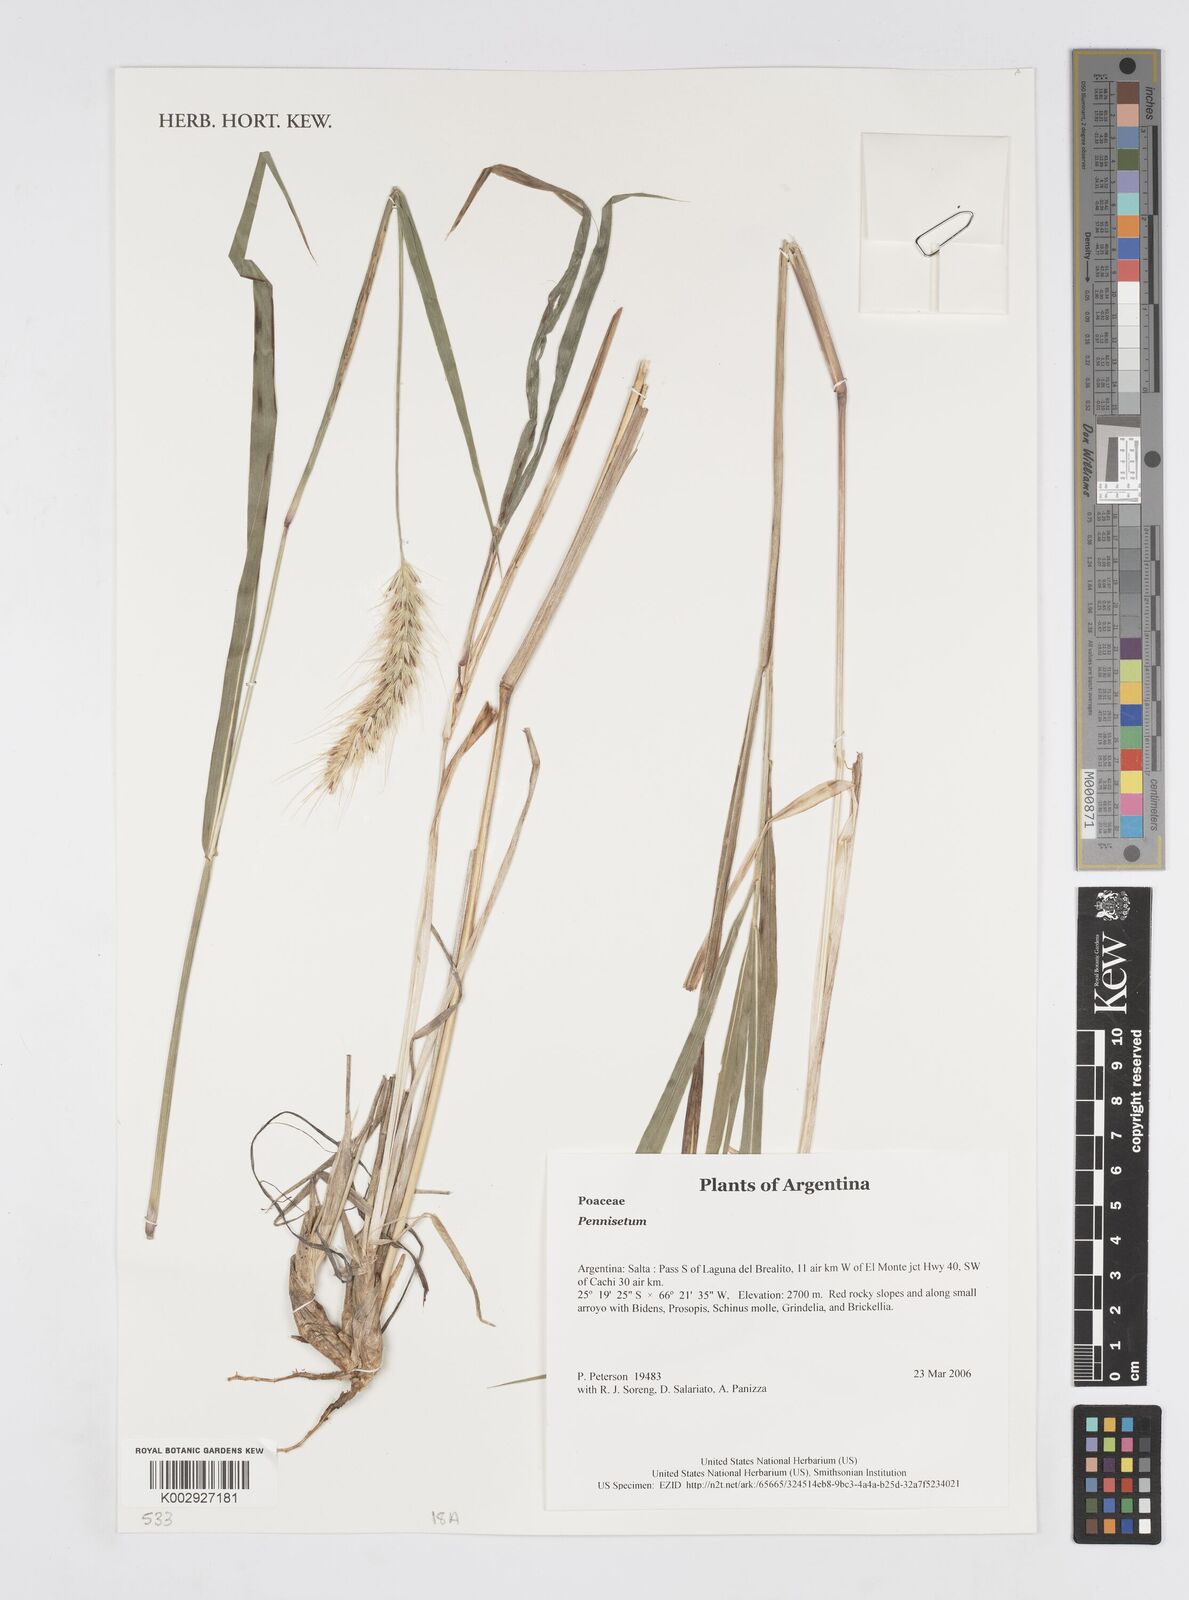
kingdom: Plantae
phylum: Tracheophyta
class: Liliopsida
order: Poales
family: Poaceae
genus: Cenchrus
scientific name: Cenchrus Pennisetum spec
